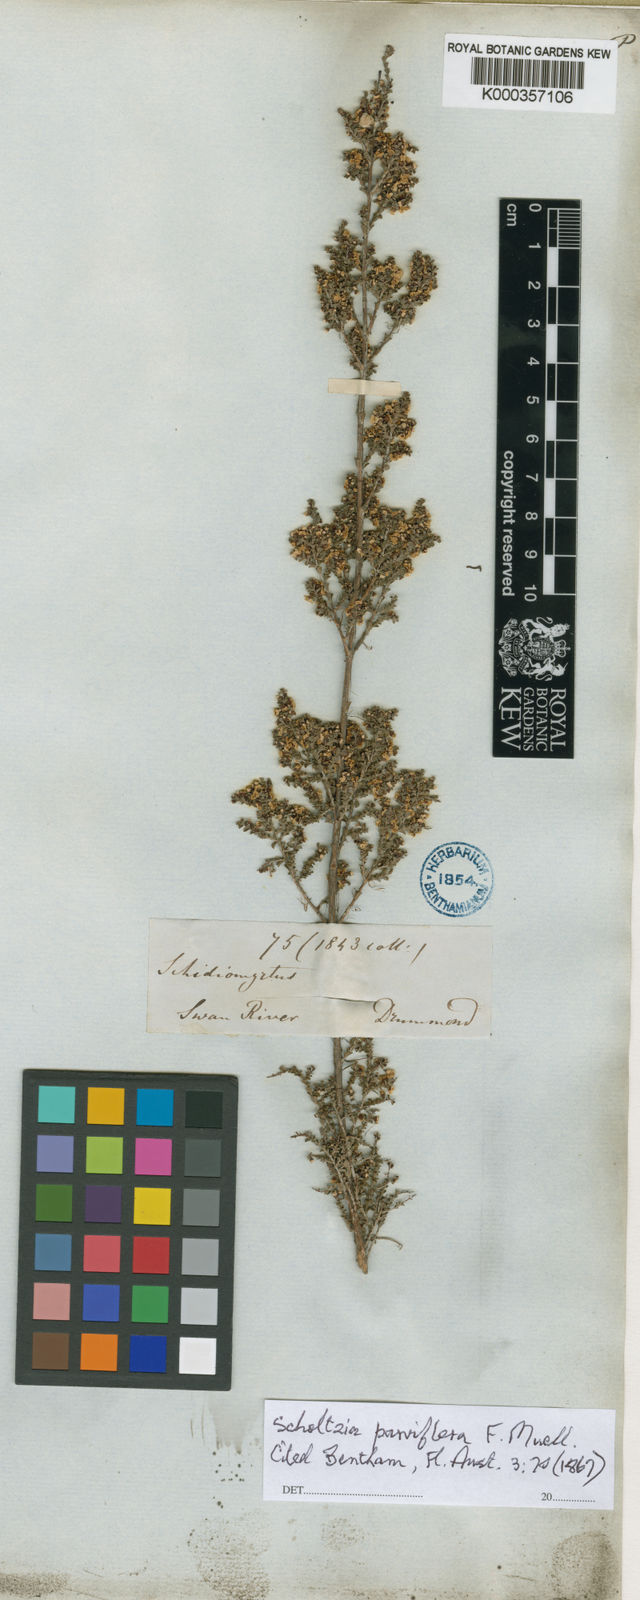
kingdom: Plantae
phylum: Tracheophyta
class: Magnoliopsida
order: Myrtales
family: Myrtaceae
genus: Scholtzia
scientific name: Scholtzia parviflora
